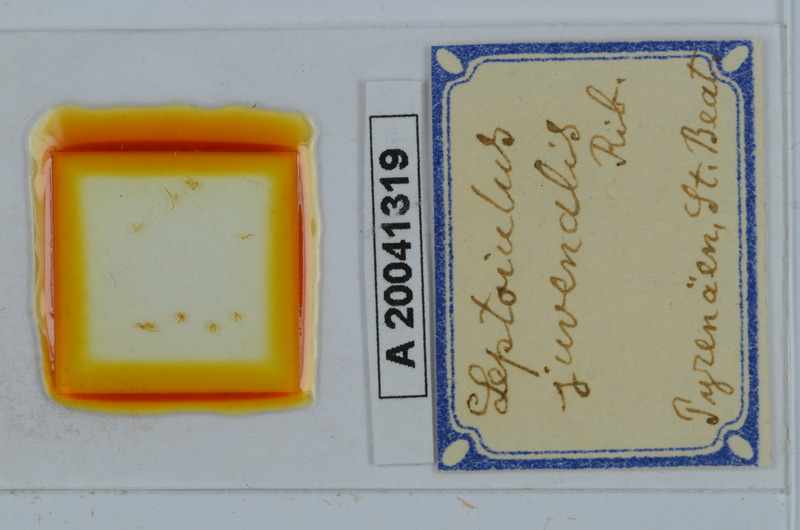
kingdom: Animalia
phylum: Arthropoda
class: Diplopoda
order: Julida
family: Julidae
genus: Leptoiulus
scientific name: Leptoiulus juvenilis
